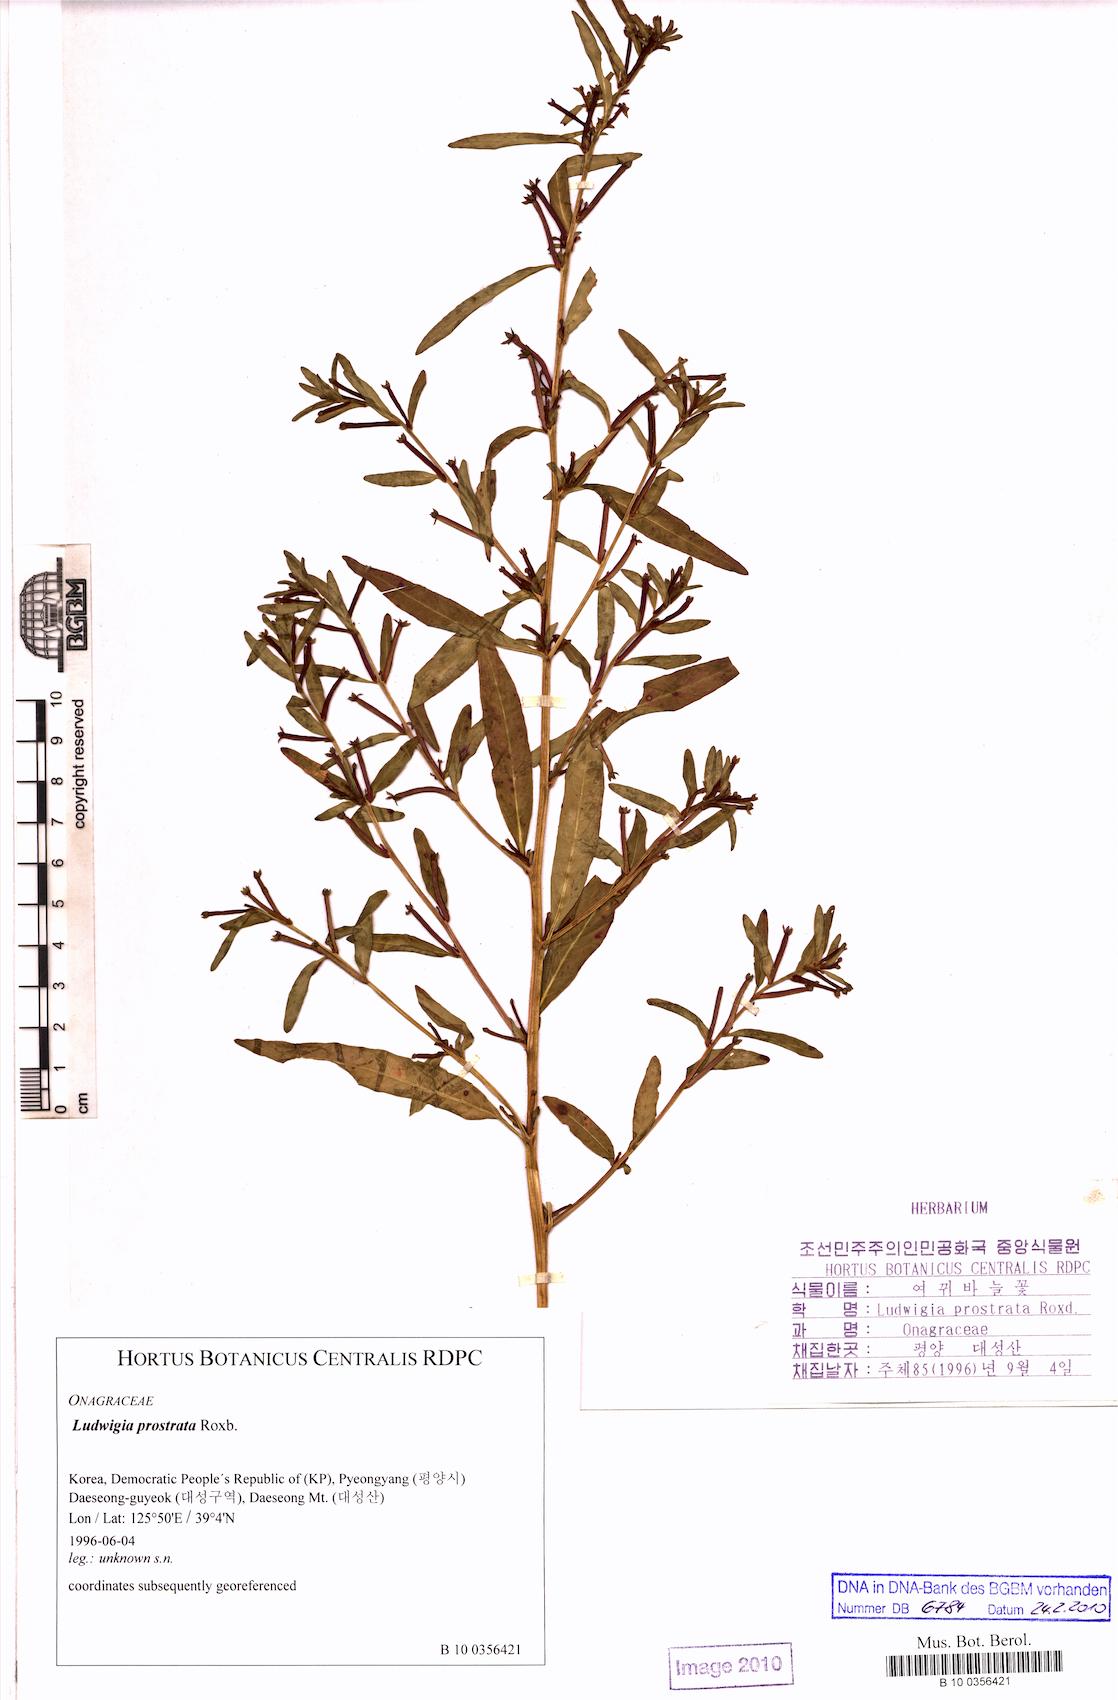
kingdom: Plantae
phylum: Tracheophyta
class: Magnoliopsida
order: Myrtales
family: Onagraceae
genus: Ludwigia
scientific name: Ludwigia prostrata
